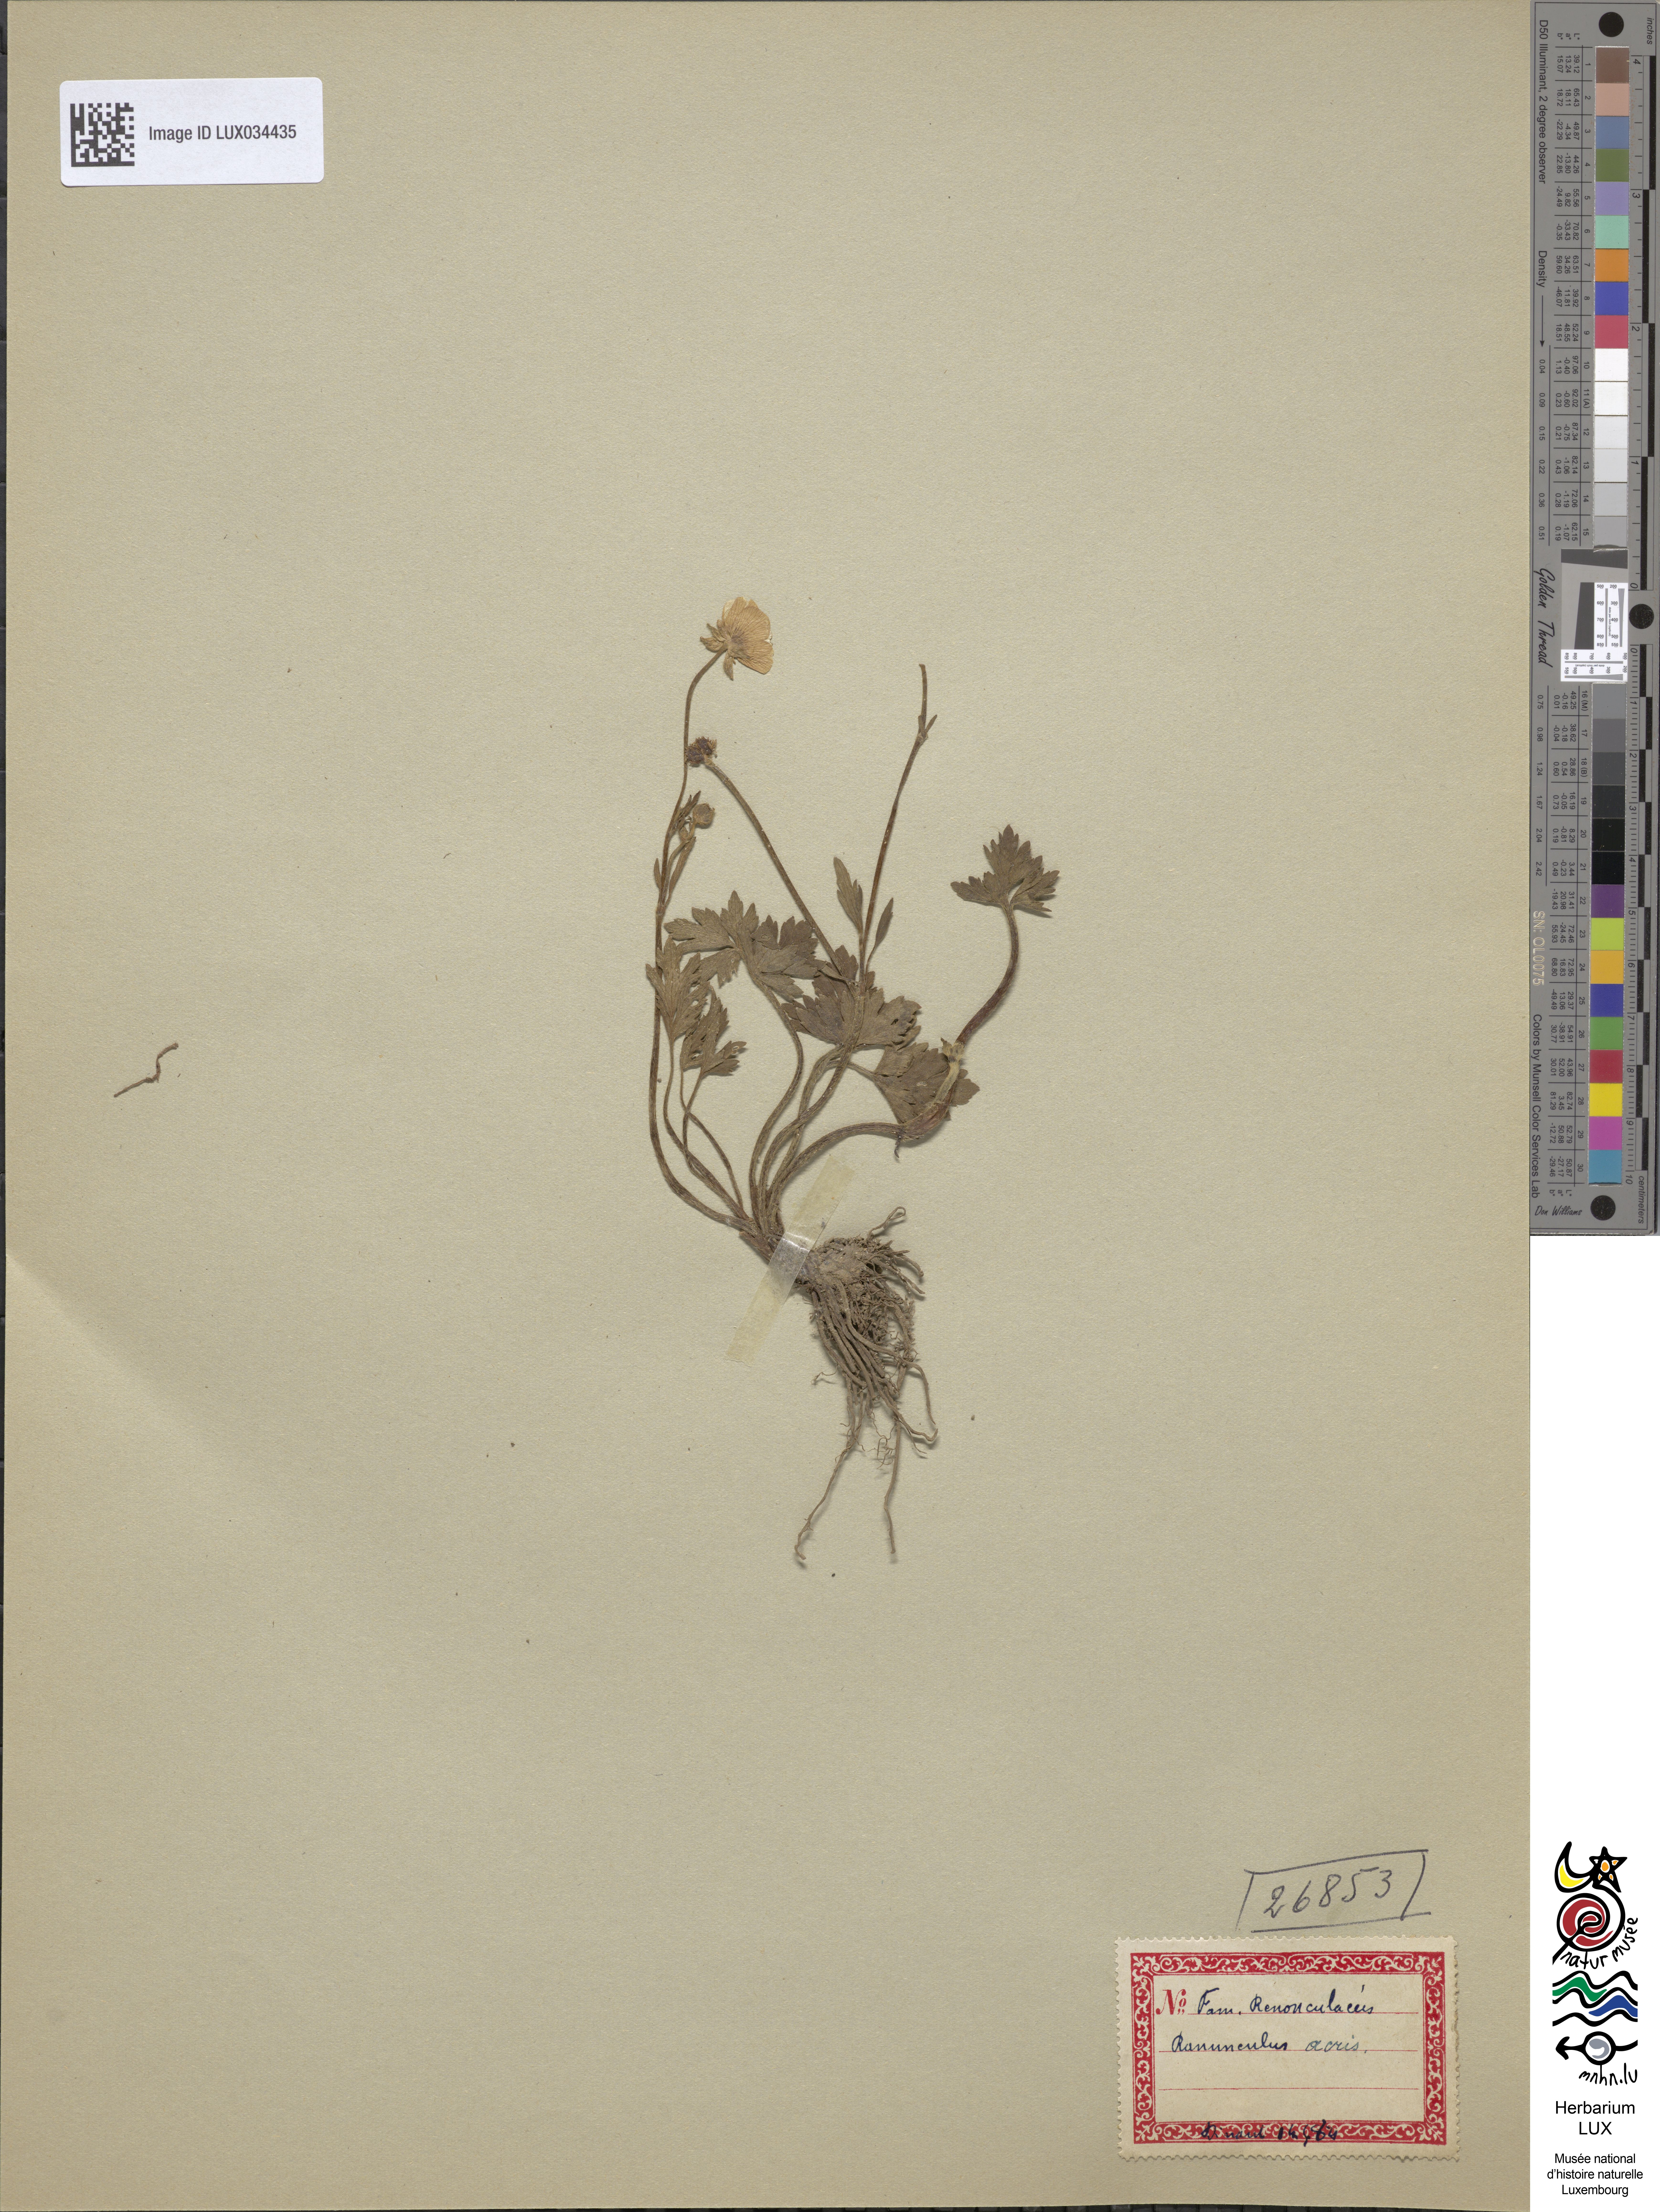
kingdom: Plantae
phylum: Tracheophyta
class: Magnoliopsida
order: Ranunculales
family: Ranunculaceae
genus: Ranunculus
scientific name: Ranunculus acris
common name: Meadow buttercup
